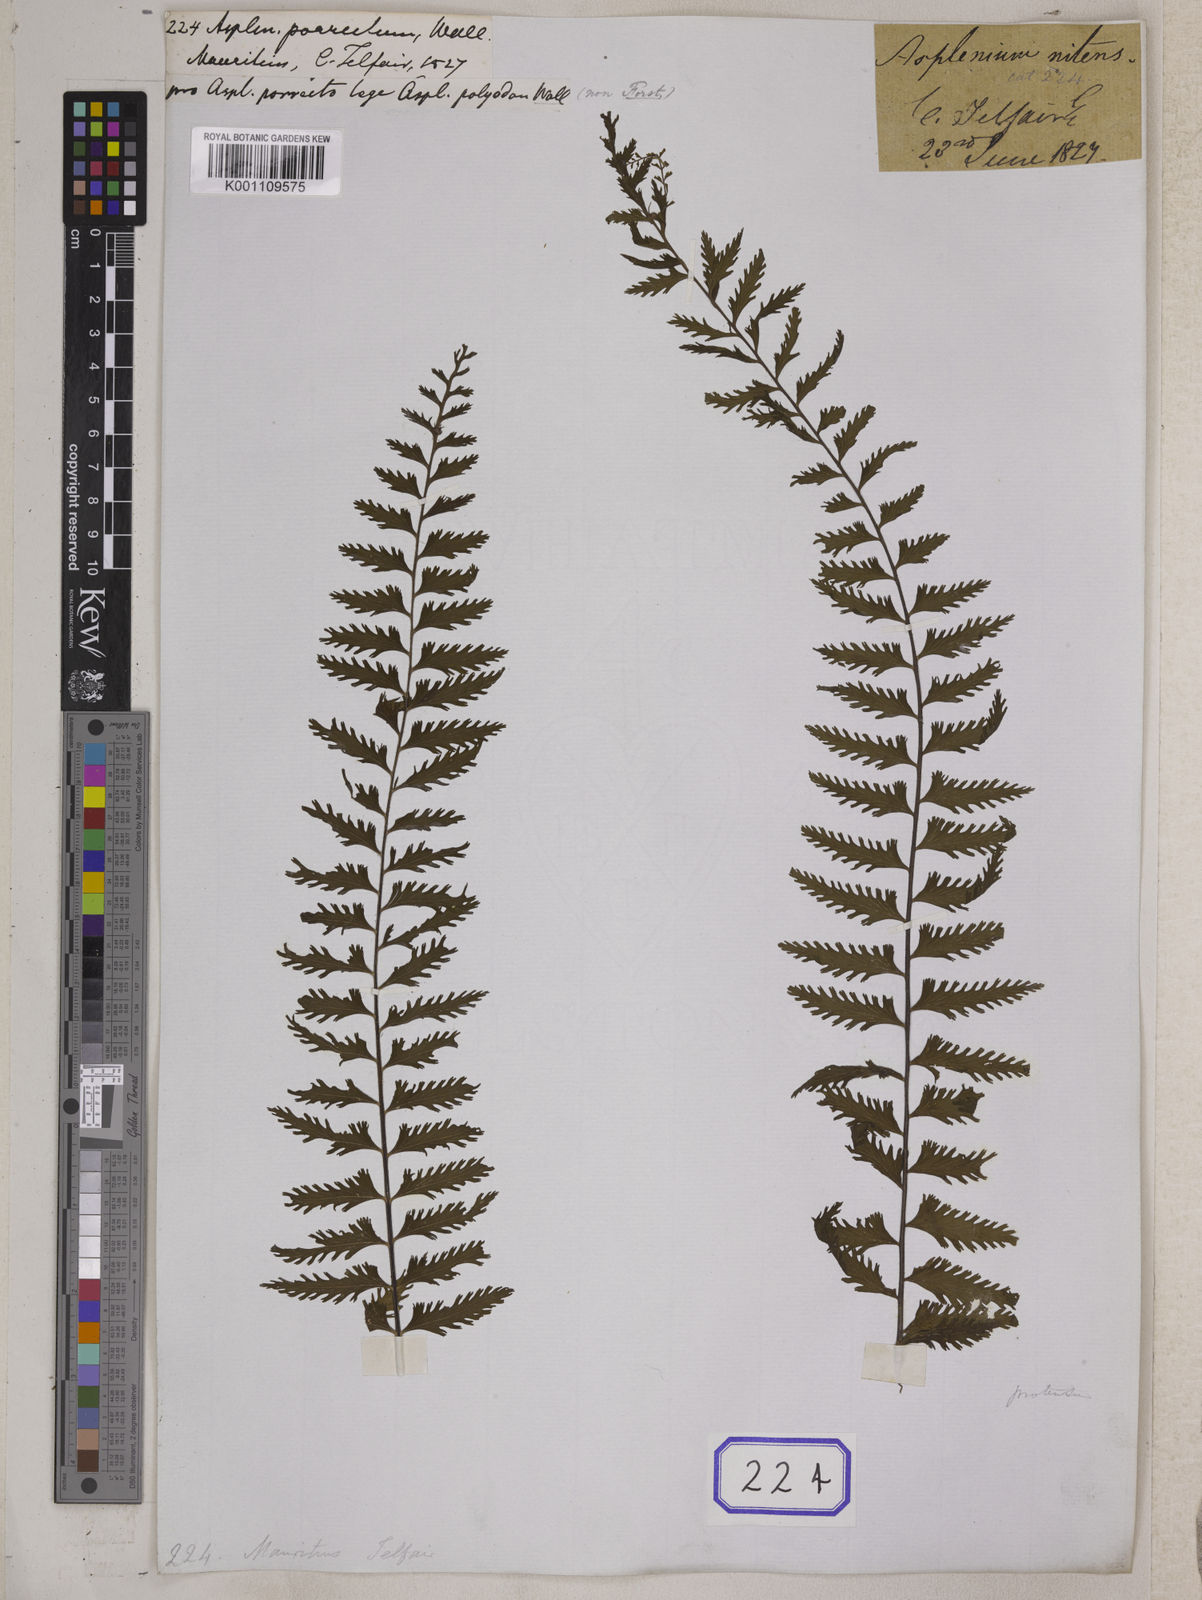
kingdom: Plantae
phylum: Tracheophyta
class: Polypodiopsida
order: Polypodiales
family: Aspleniaceae
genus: Asplenium
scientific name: Asplenium protensum
